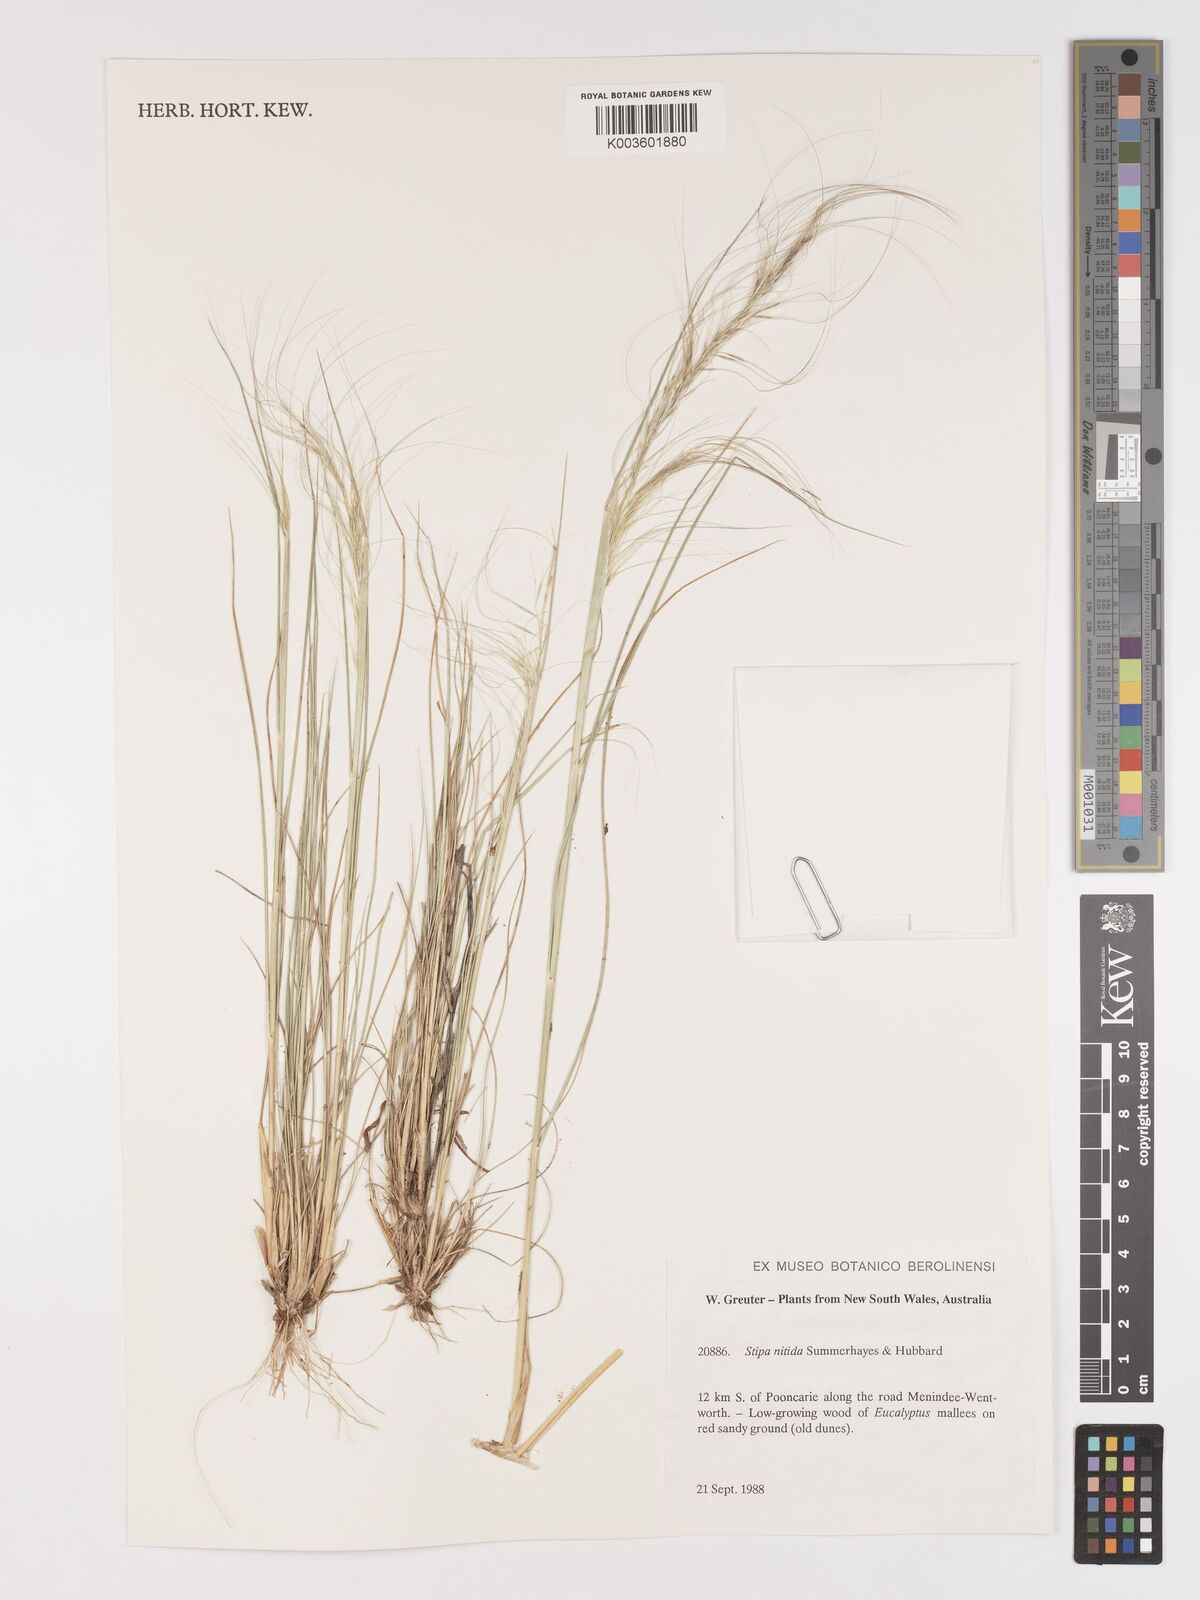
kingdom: Plantae
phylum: Tracheophyta
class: Liliopsida
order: Poales
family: Poaceae
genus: Austrostipa
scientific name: Austrostipa nitida
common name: Balcarra grass
